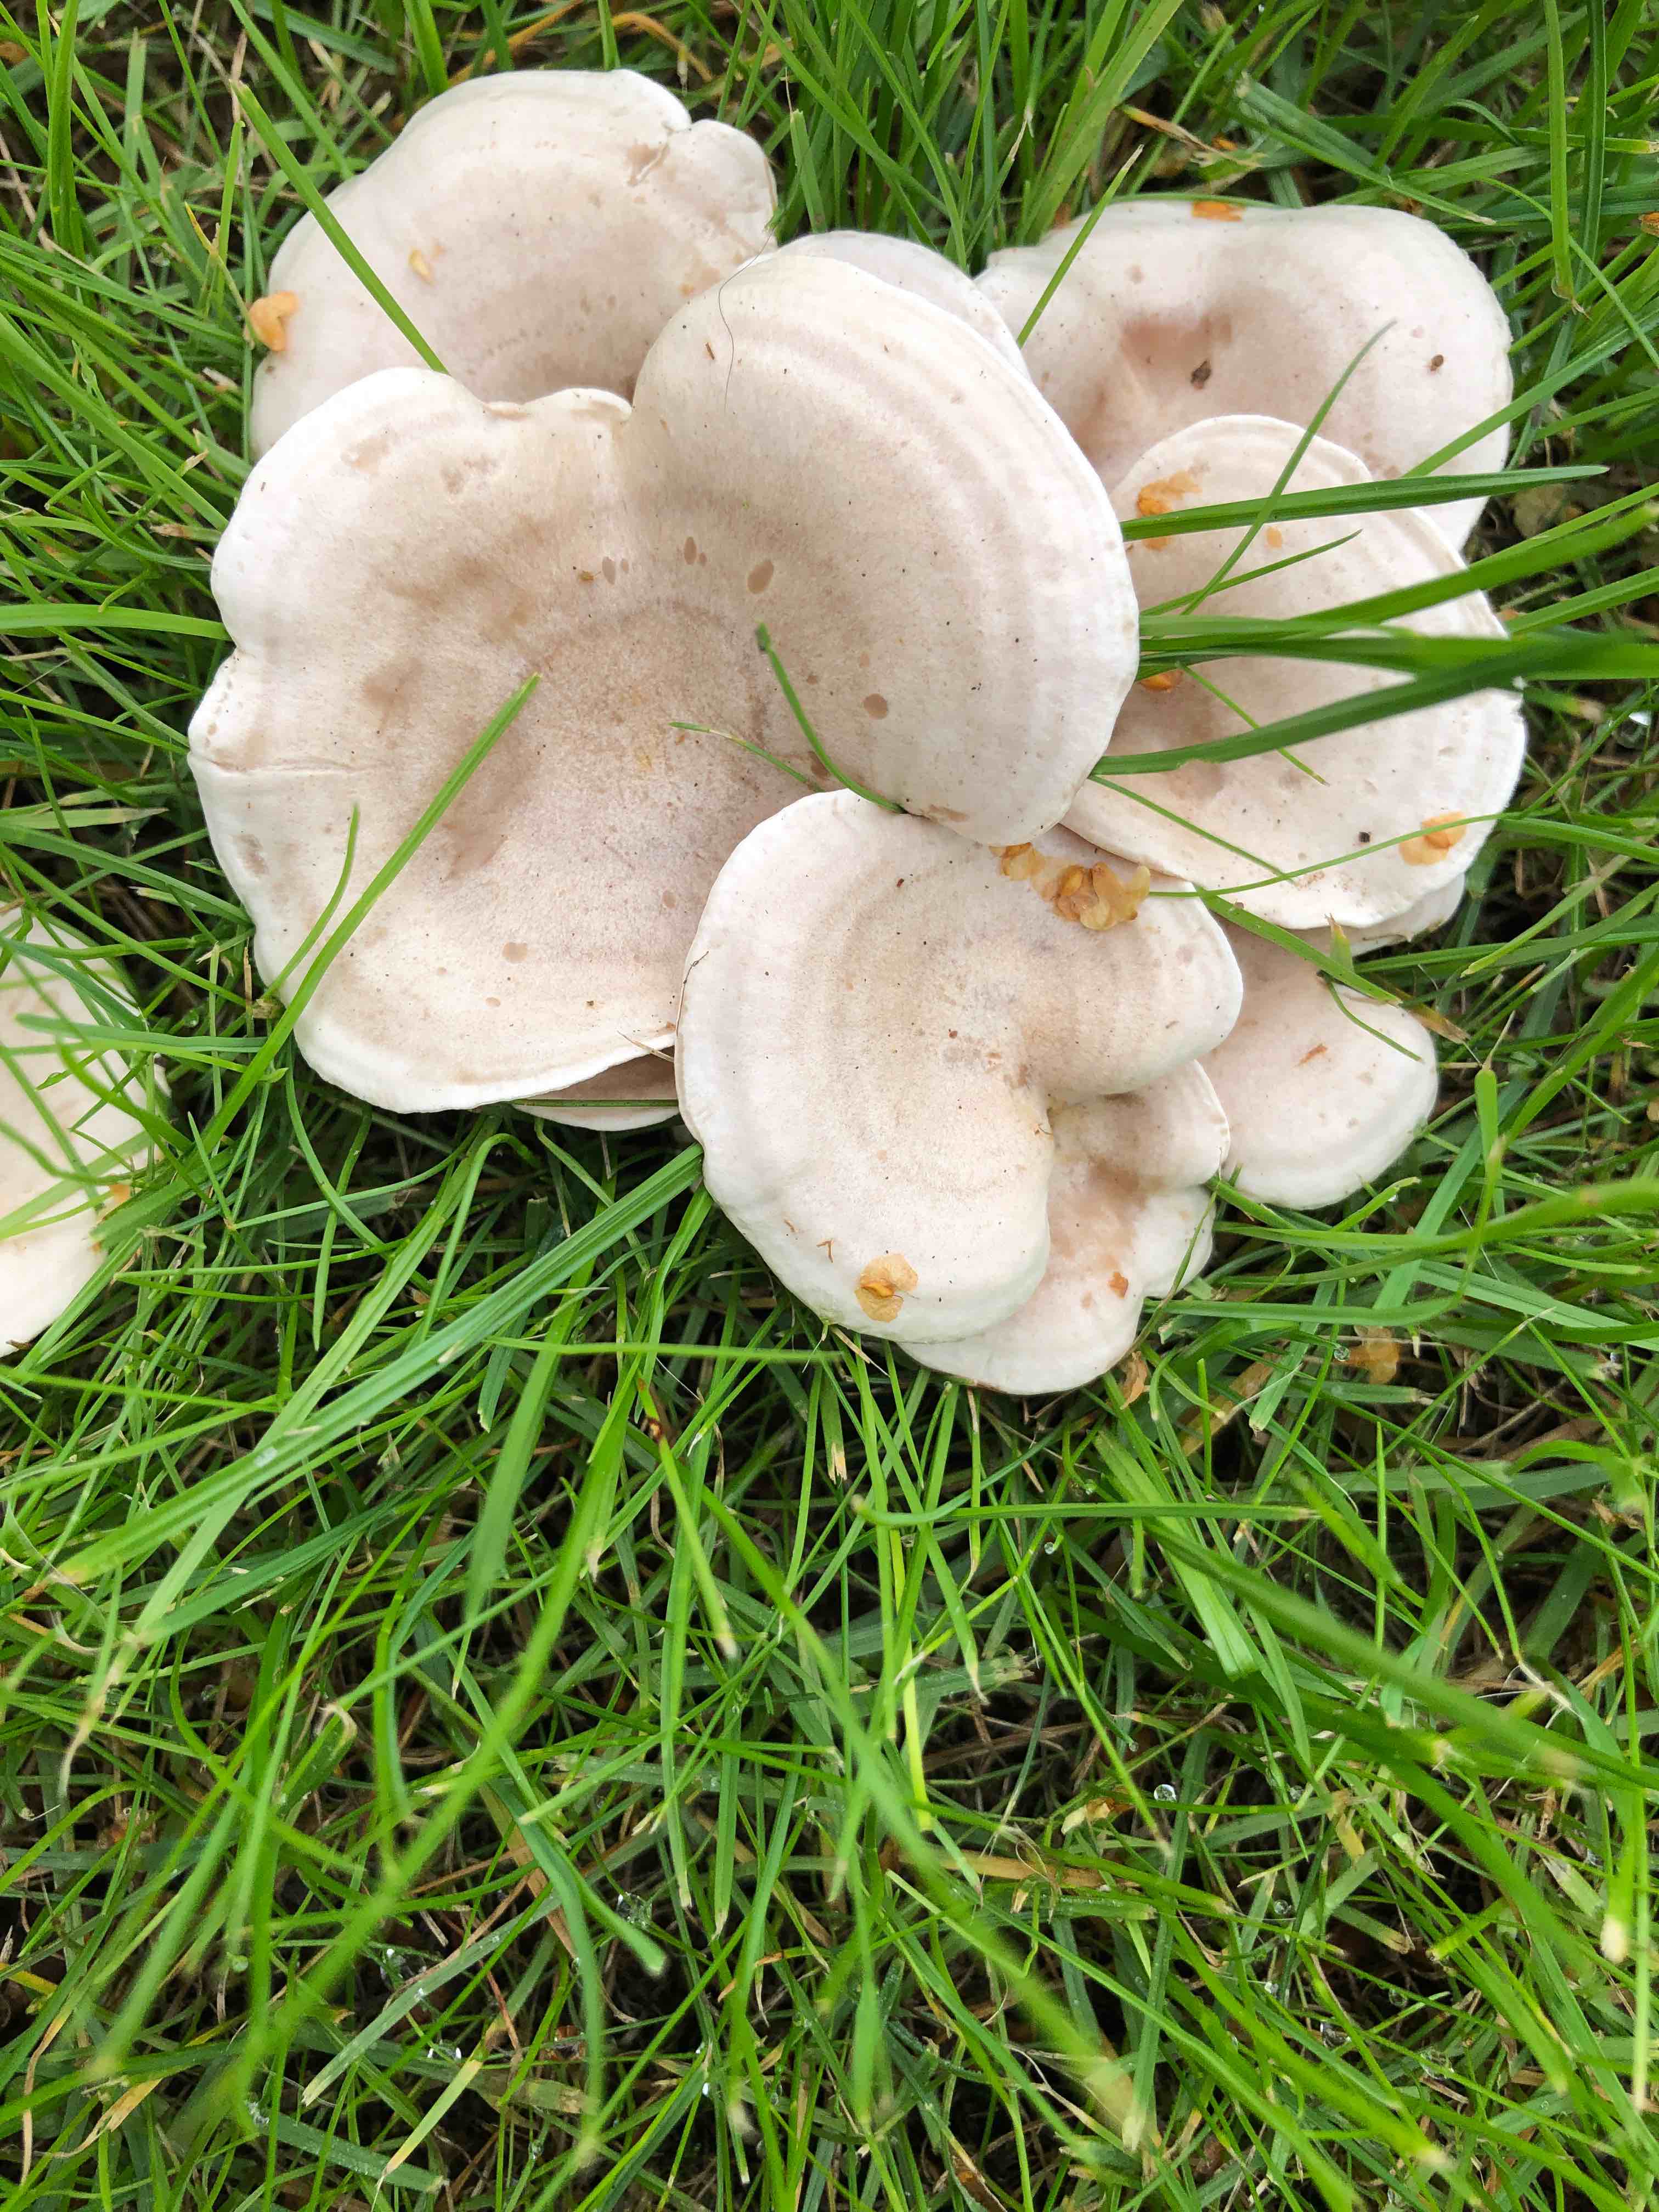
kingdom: Fungi
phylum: Basidiomycota
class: Agaricomycetes
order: Agaricales
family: Tricholomataceae
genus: Clitocybe
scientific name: Clitocybe rivulosa
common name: eng-tragthat
